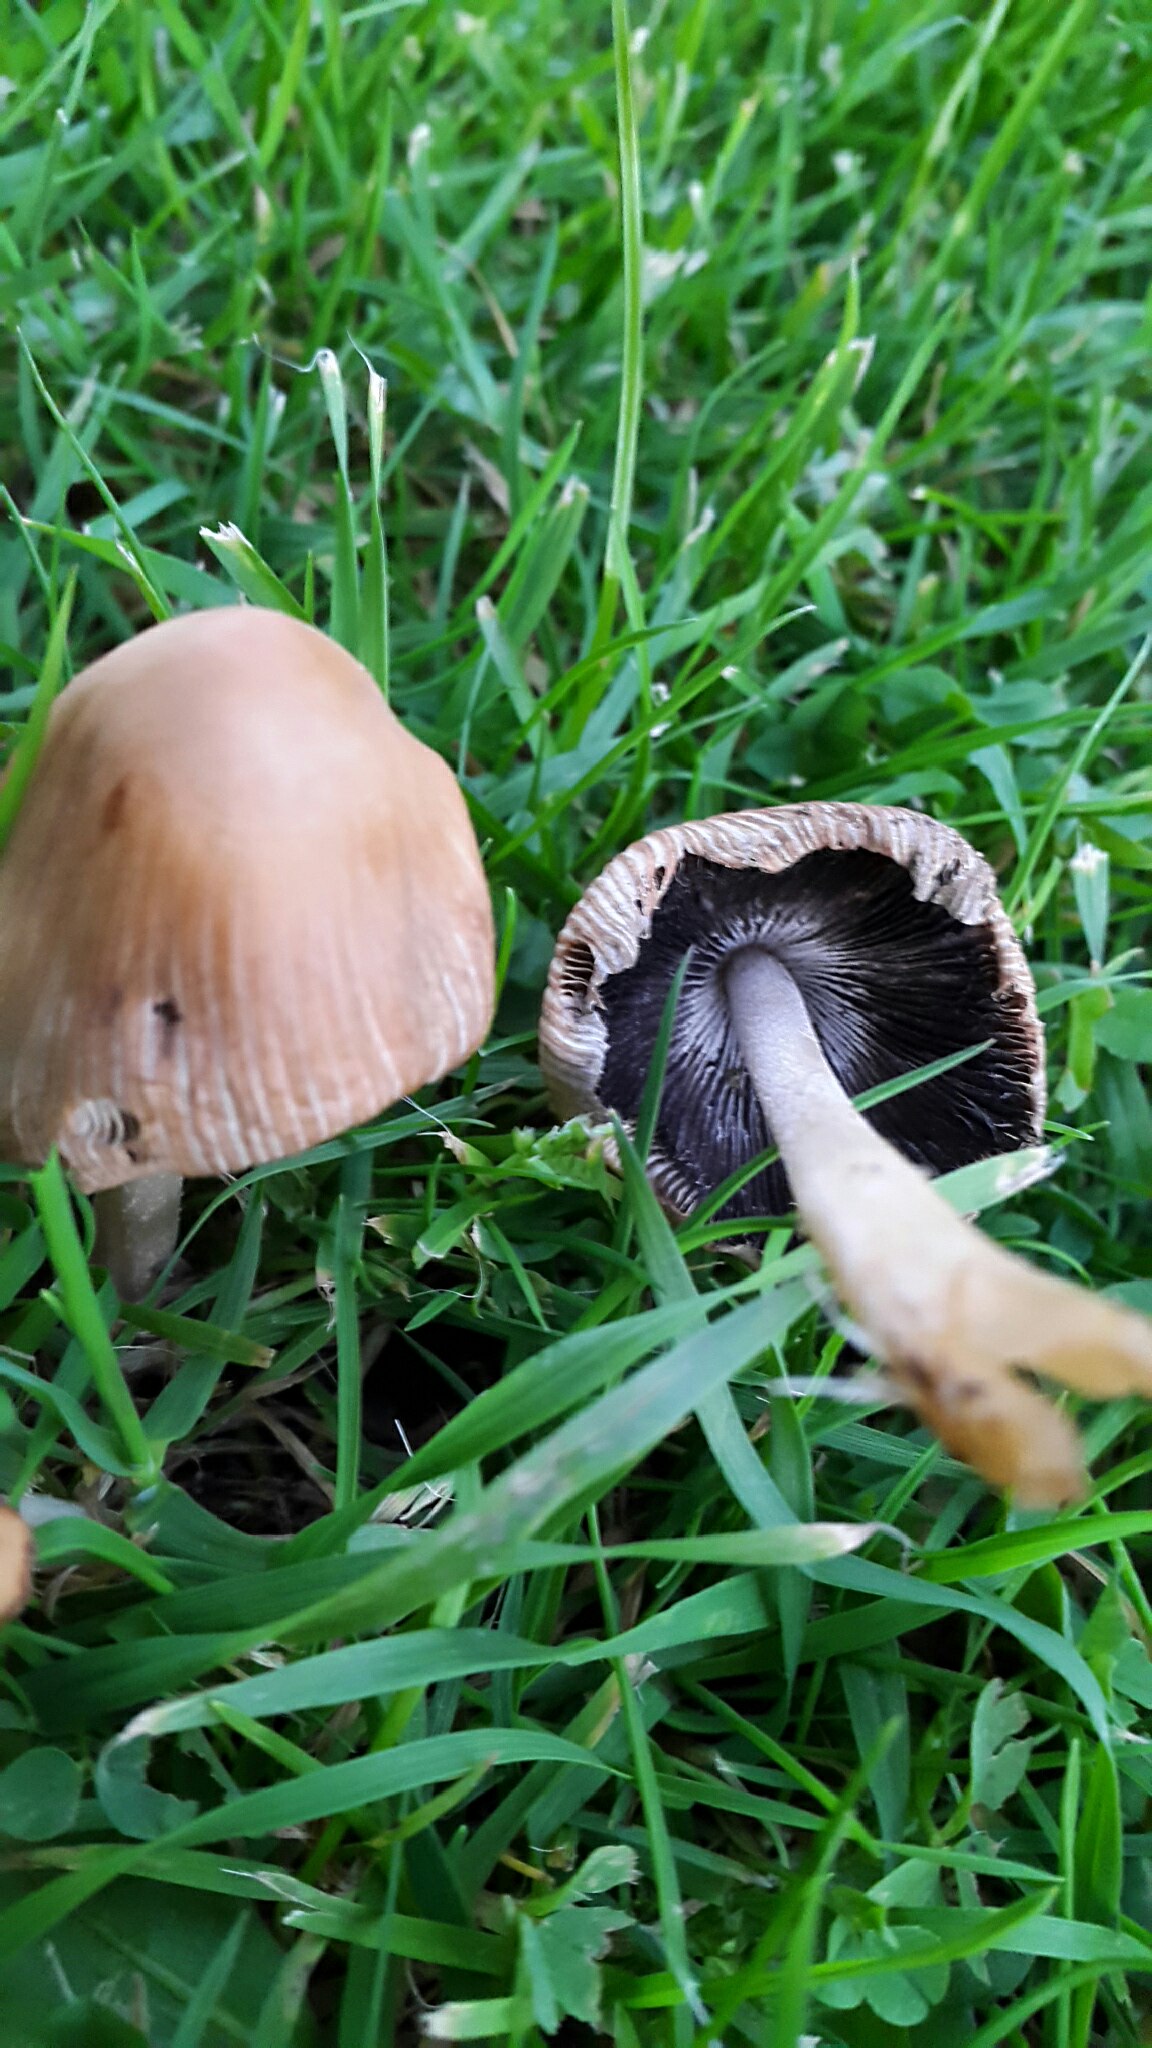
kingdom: Fungi
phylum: Basidiomycota
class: Agaricomycetes
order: Agaricales
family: Psathyrellaceae
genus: Coprinellus
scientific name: Coprinellus
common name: blækhat
